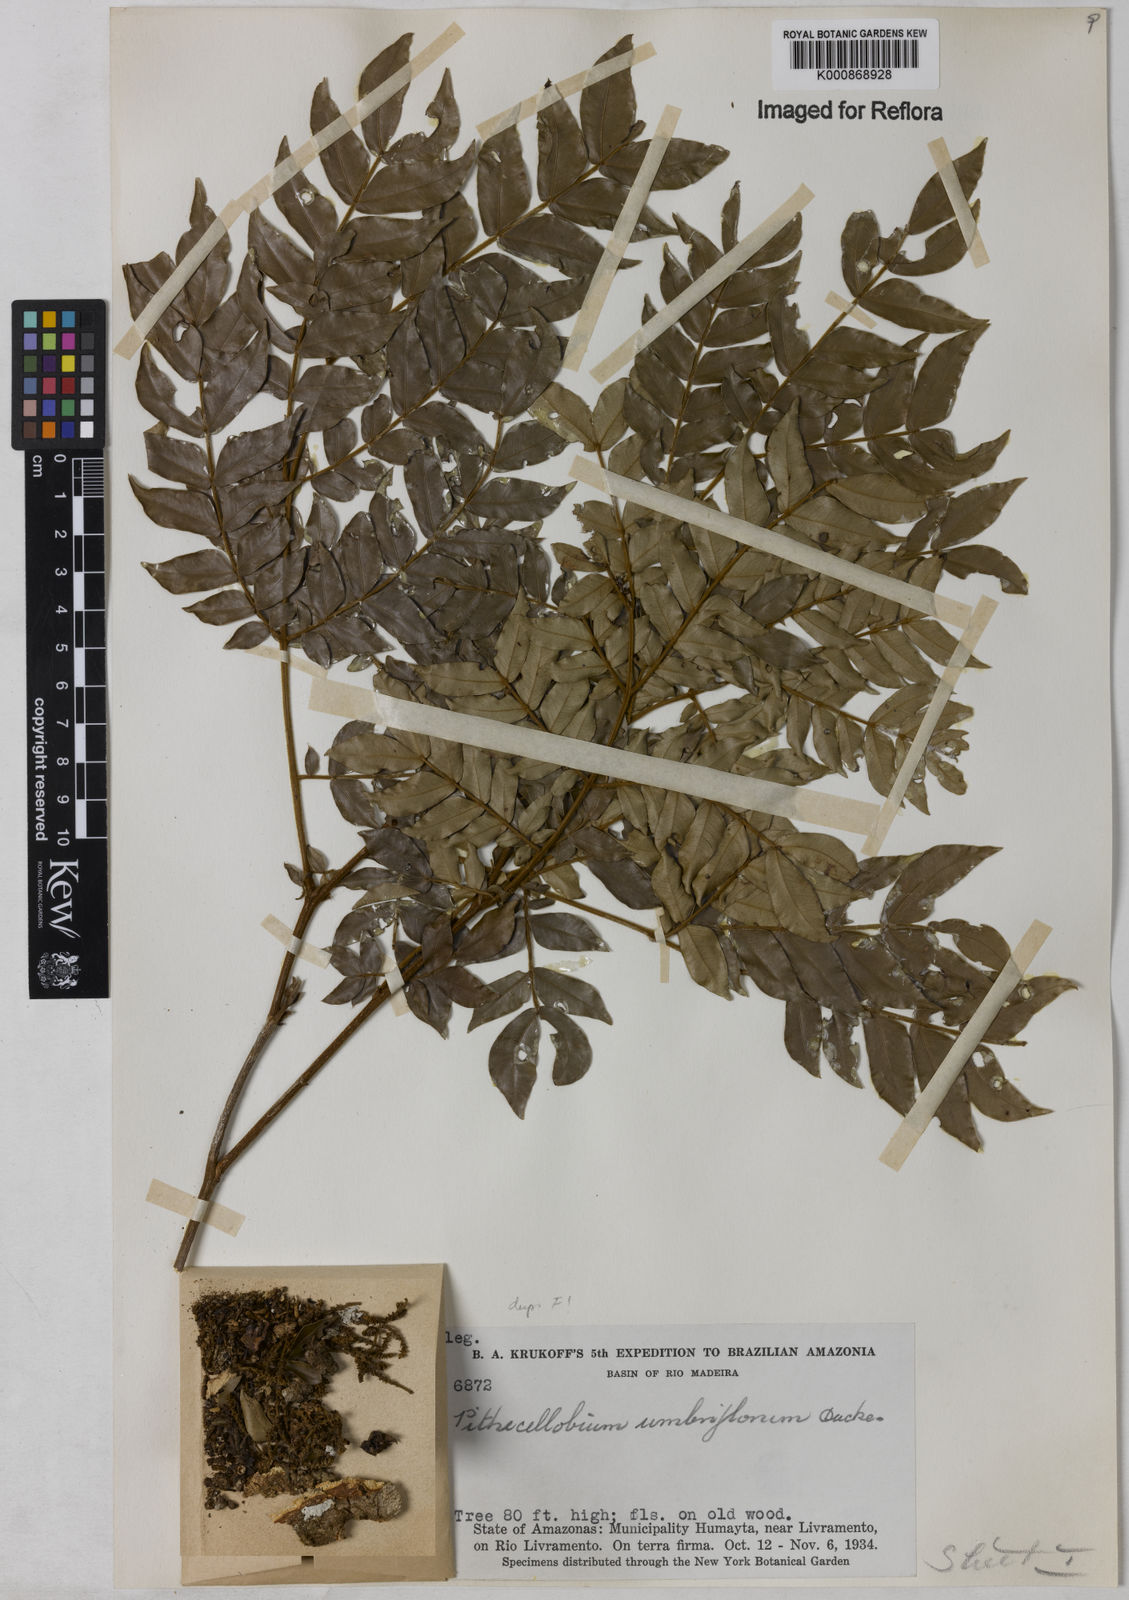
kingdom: Plantae
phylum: Tracheophyta
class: Magnoliopsida
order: Fabales
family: Fabaceae
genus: Zygia
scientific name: Zygia dinizii
